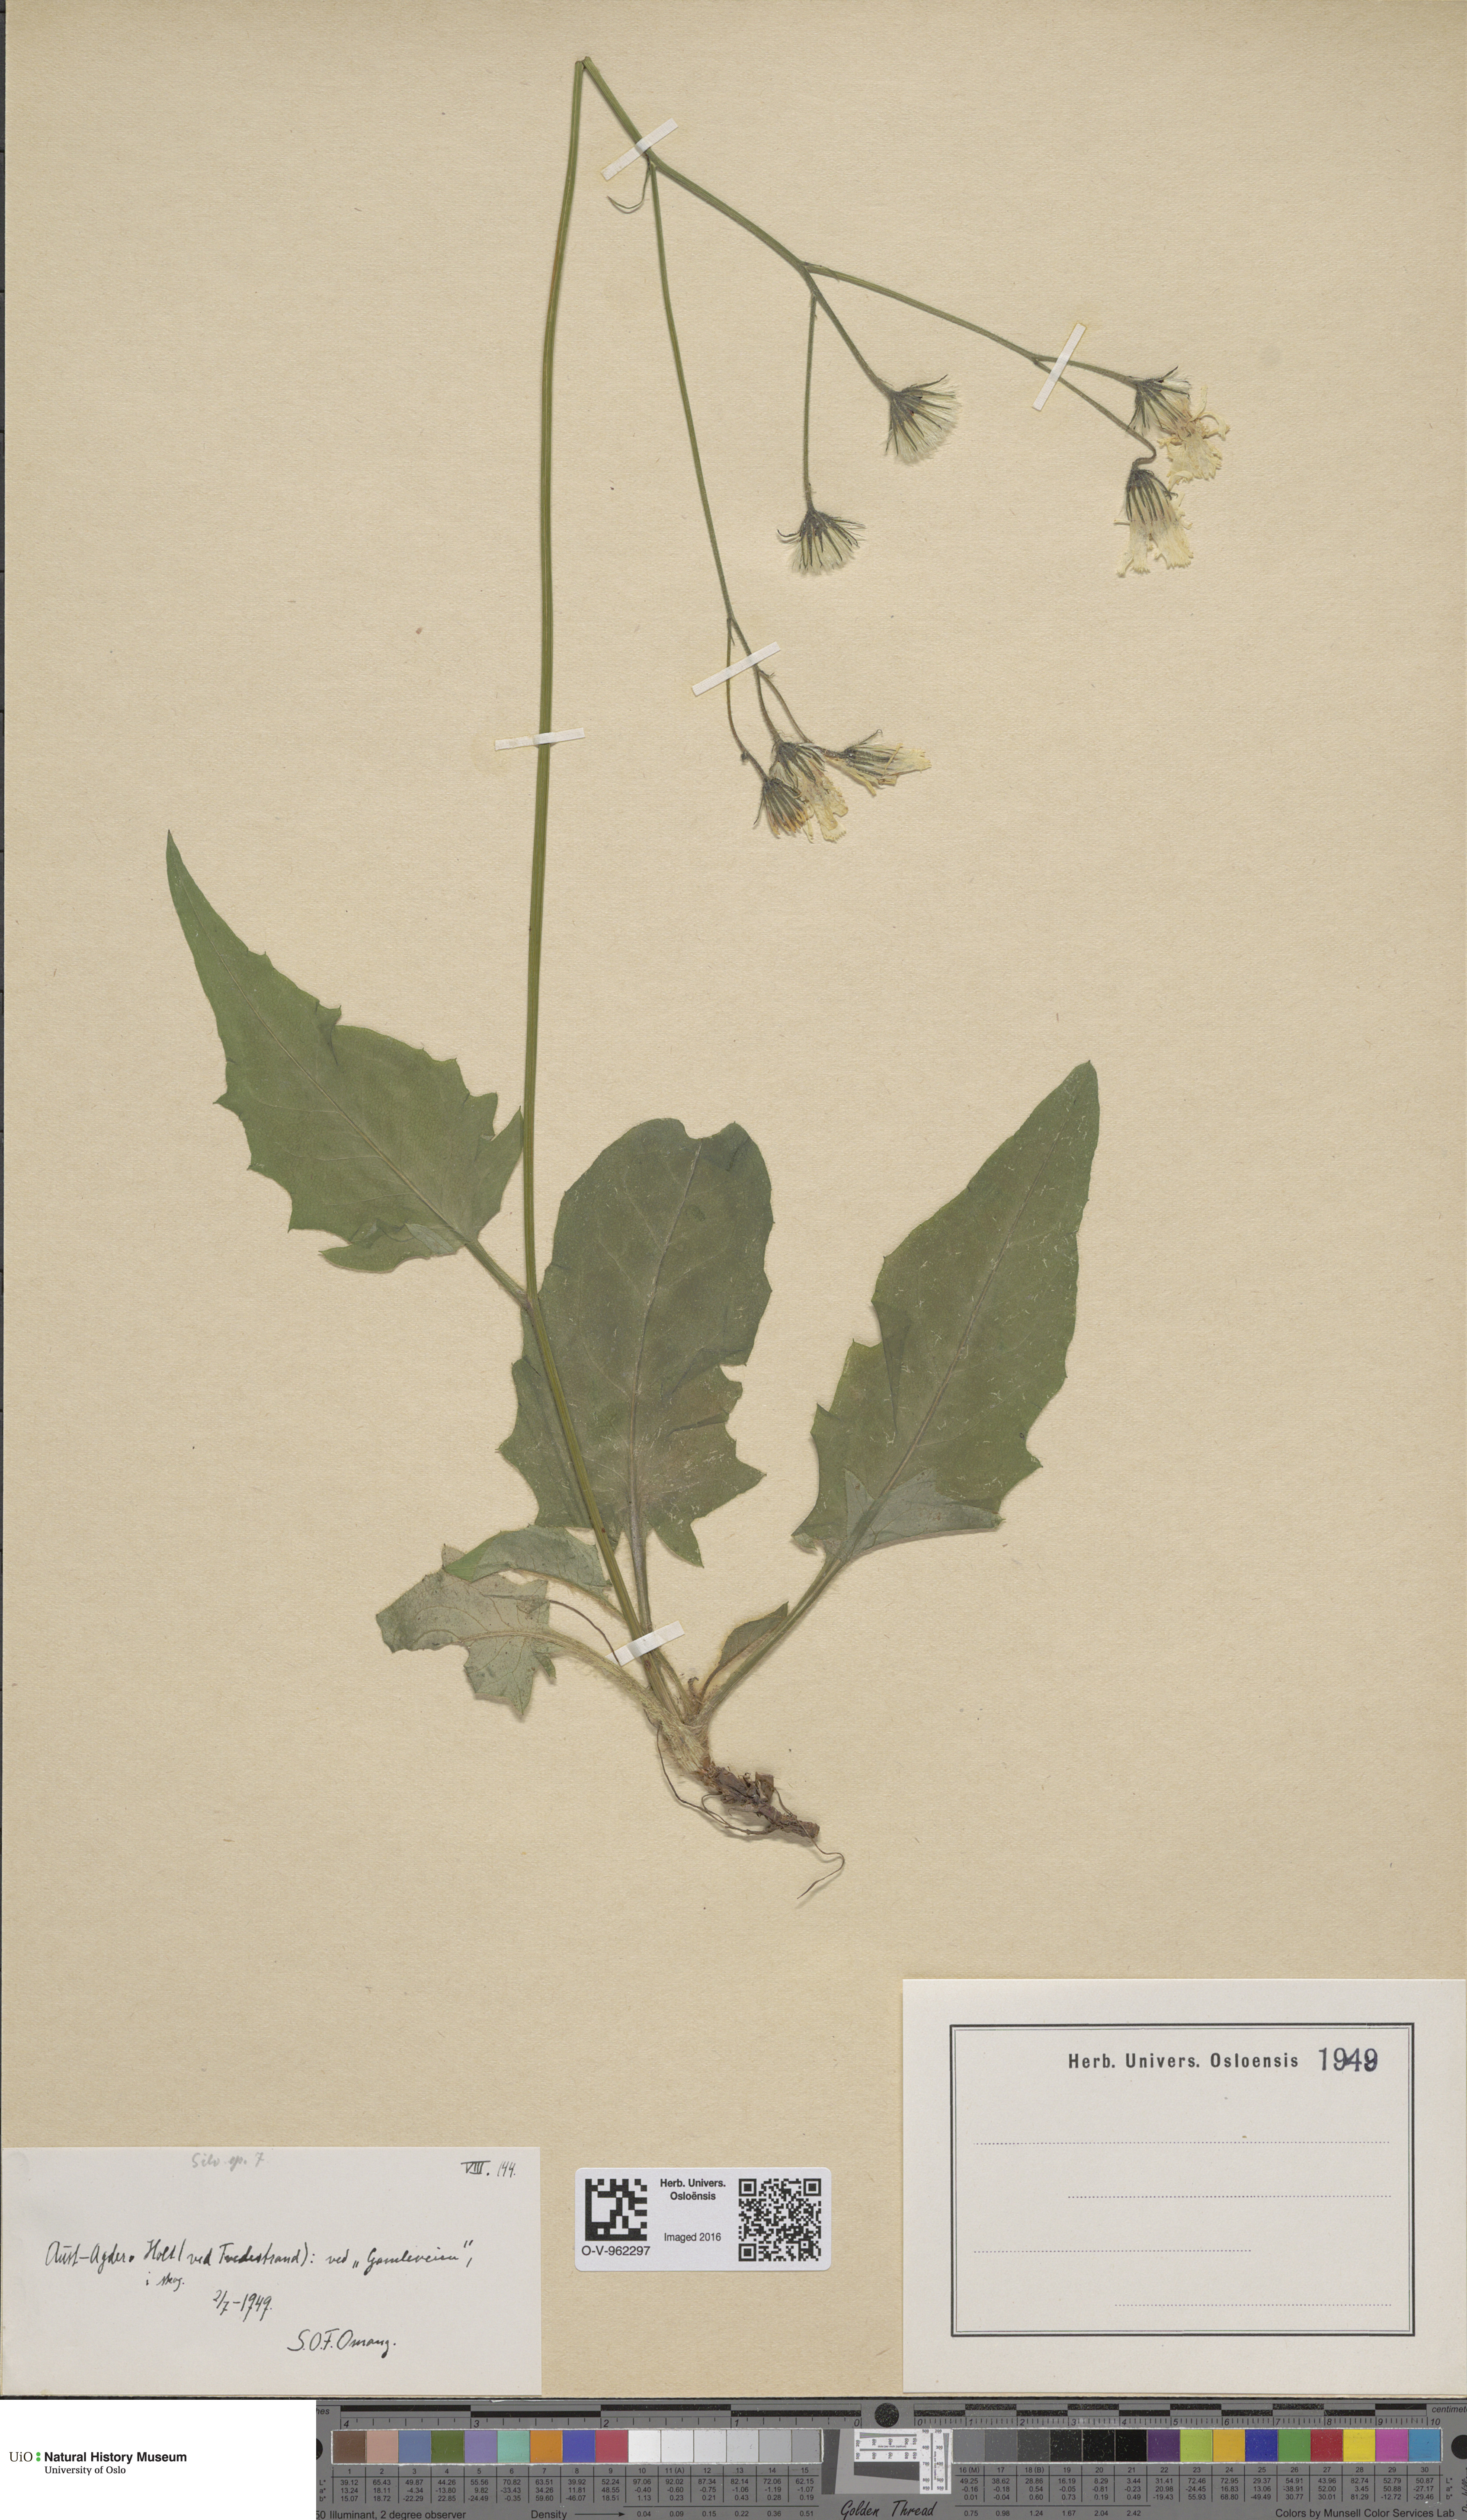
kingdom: Plantae
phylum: Tracheophyta
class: Magnoliopsida
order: Asterales
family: Asteraceae
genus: Hieracium
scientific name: Hieracium
